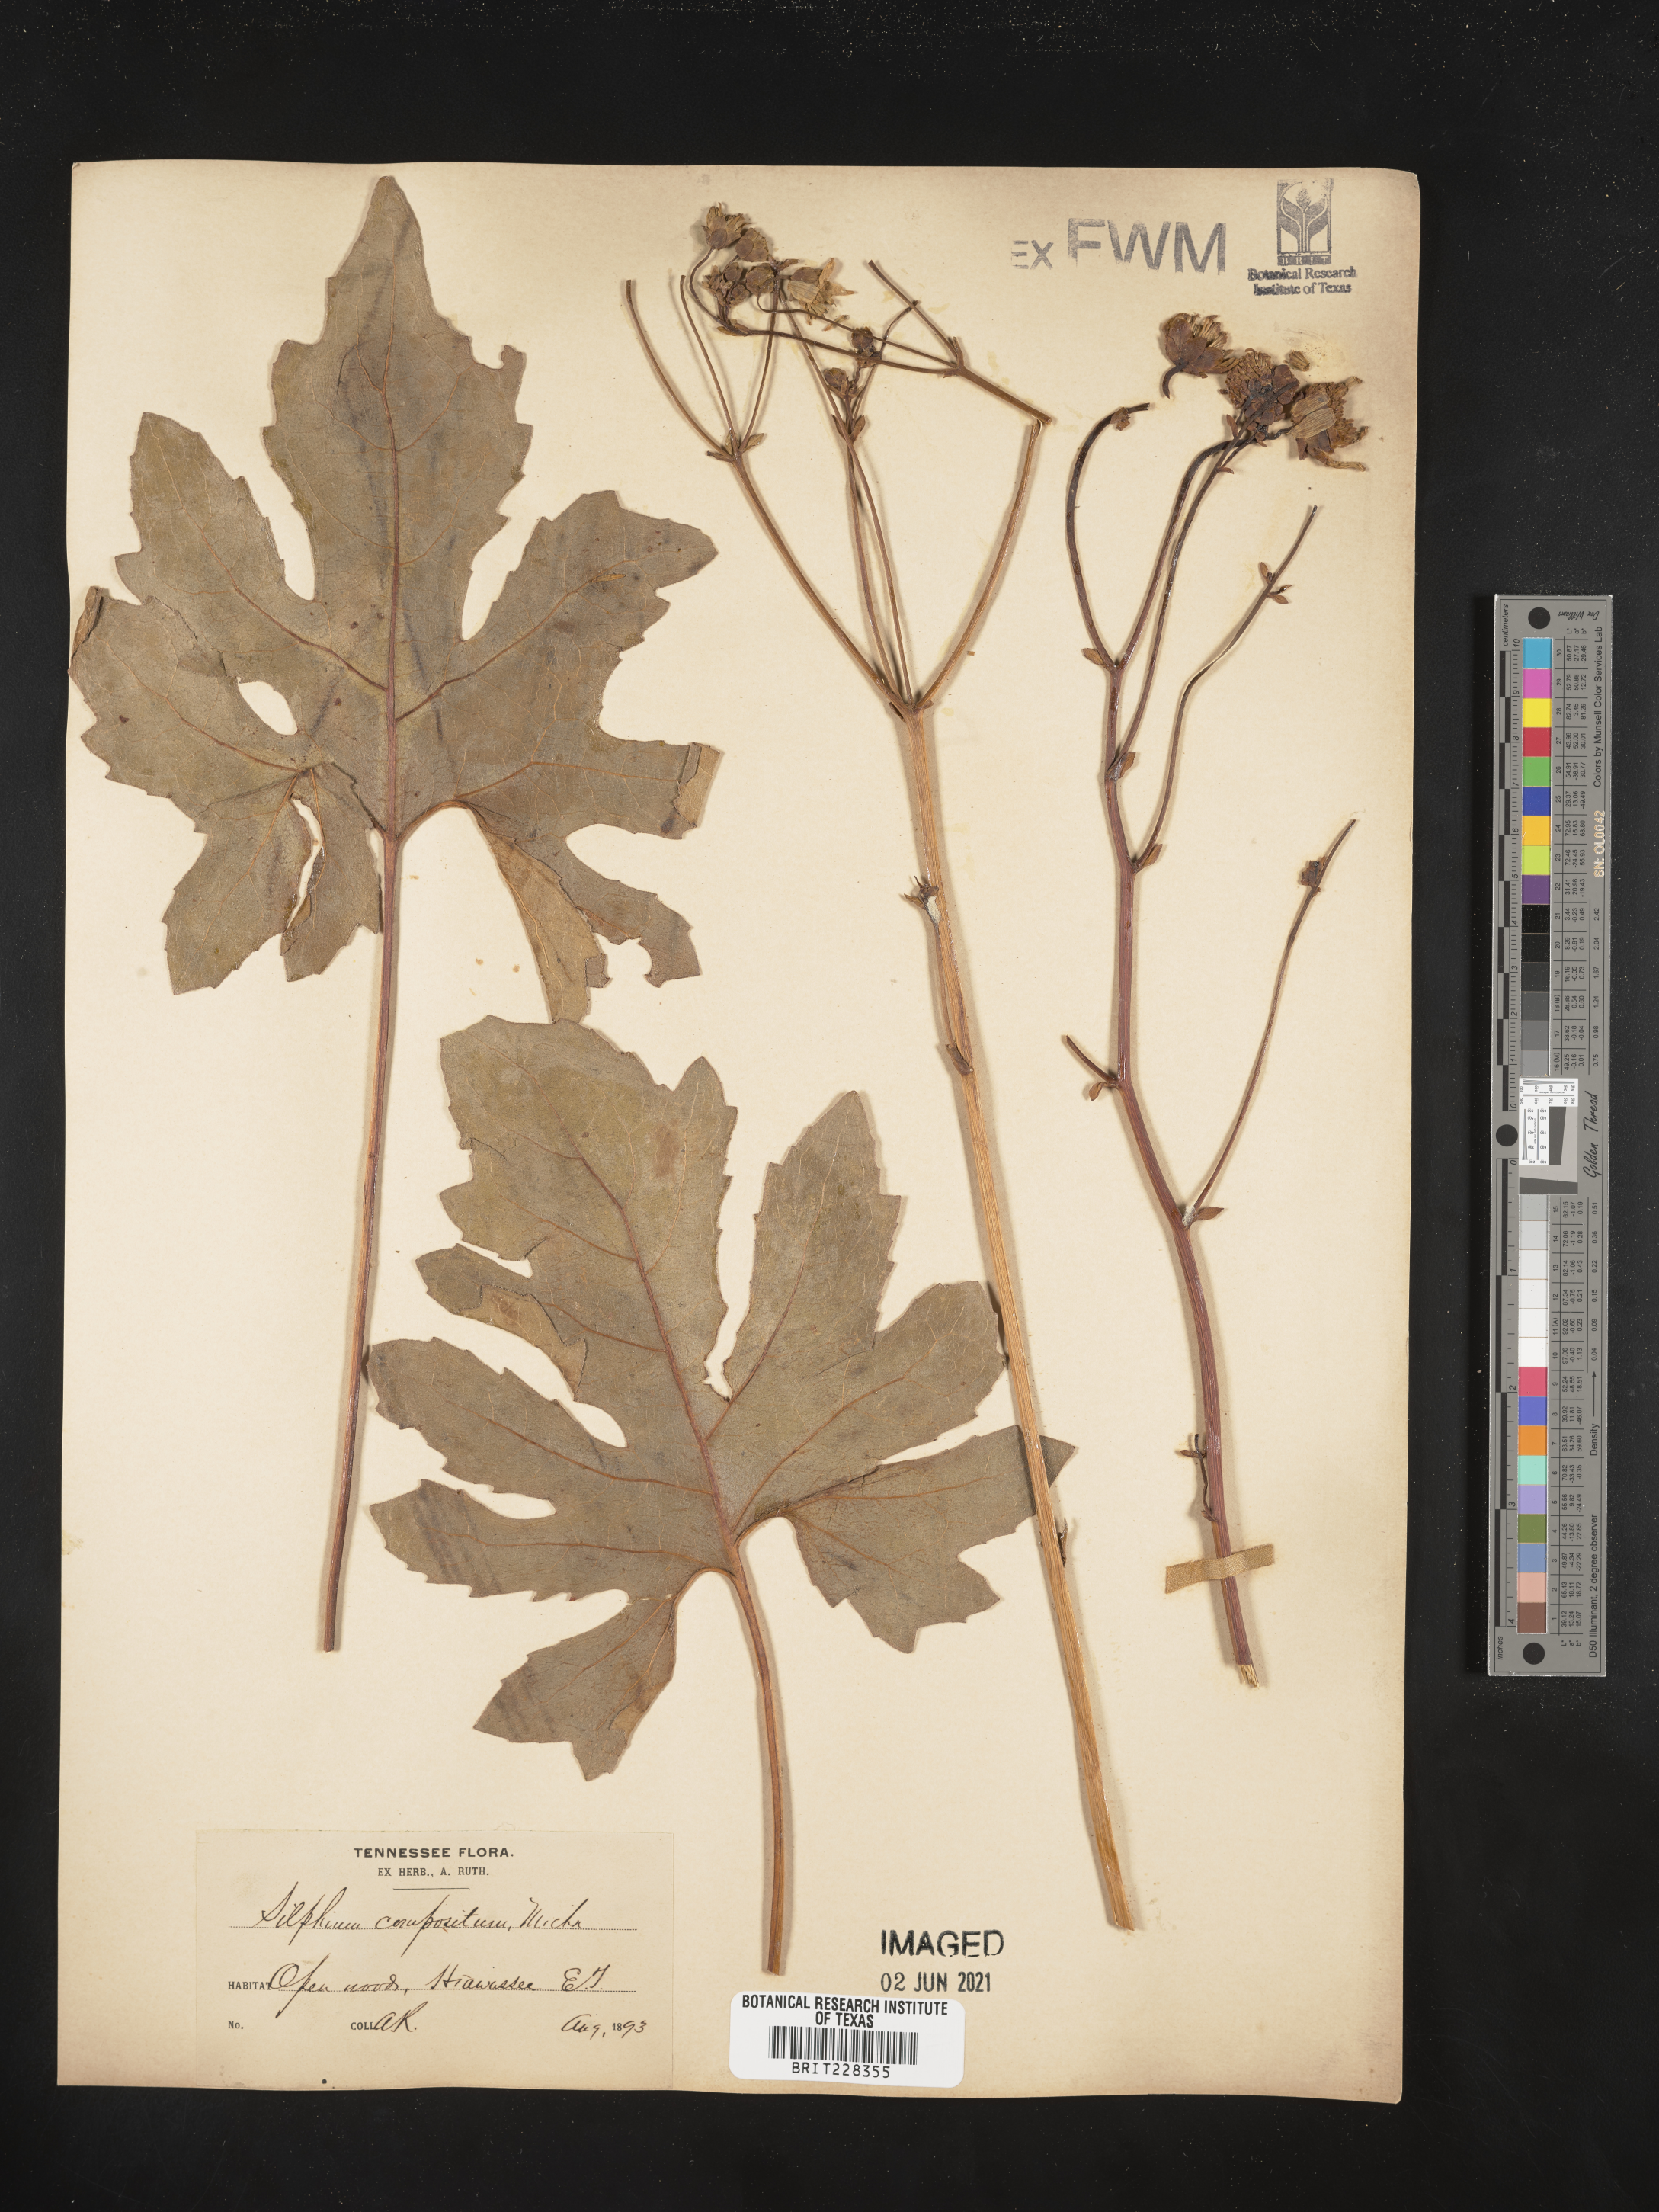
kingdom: Plantae
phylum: Tracheophyta
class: Magnoliopsida
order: Asterales
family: Asteraceae
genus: Silphium
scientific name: Silphium compositum
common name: Lesser basal-leaf rosinweed
